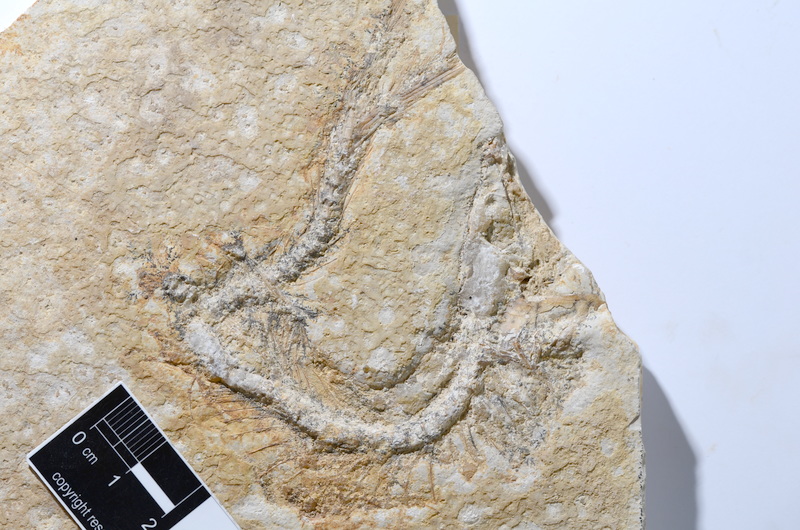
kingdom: Animalia
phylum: Chordata
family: Ascalaboidae
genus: Tharsis
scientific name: Tharsis dubius
